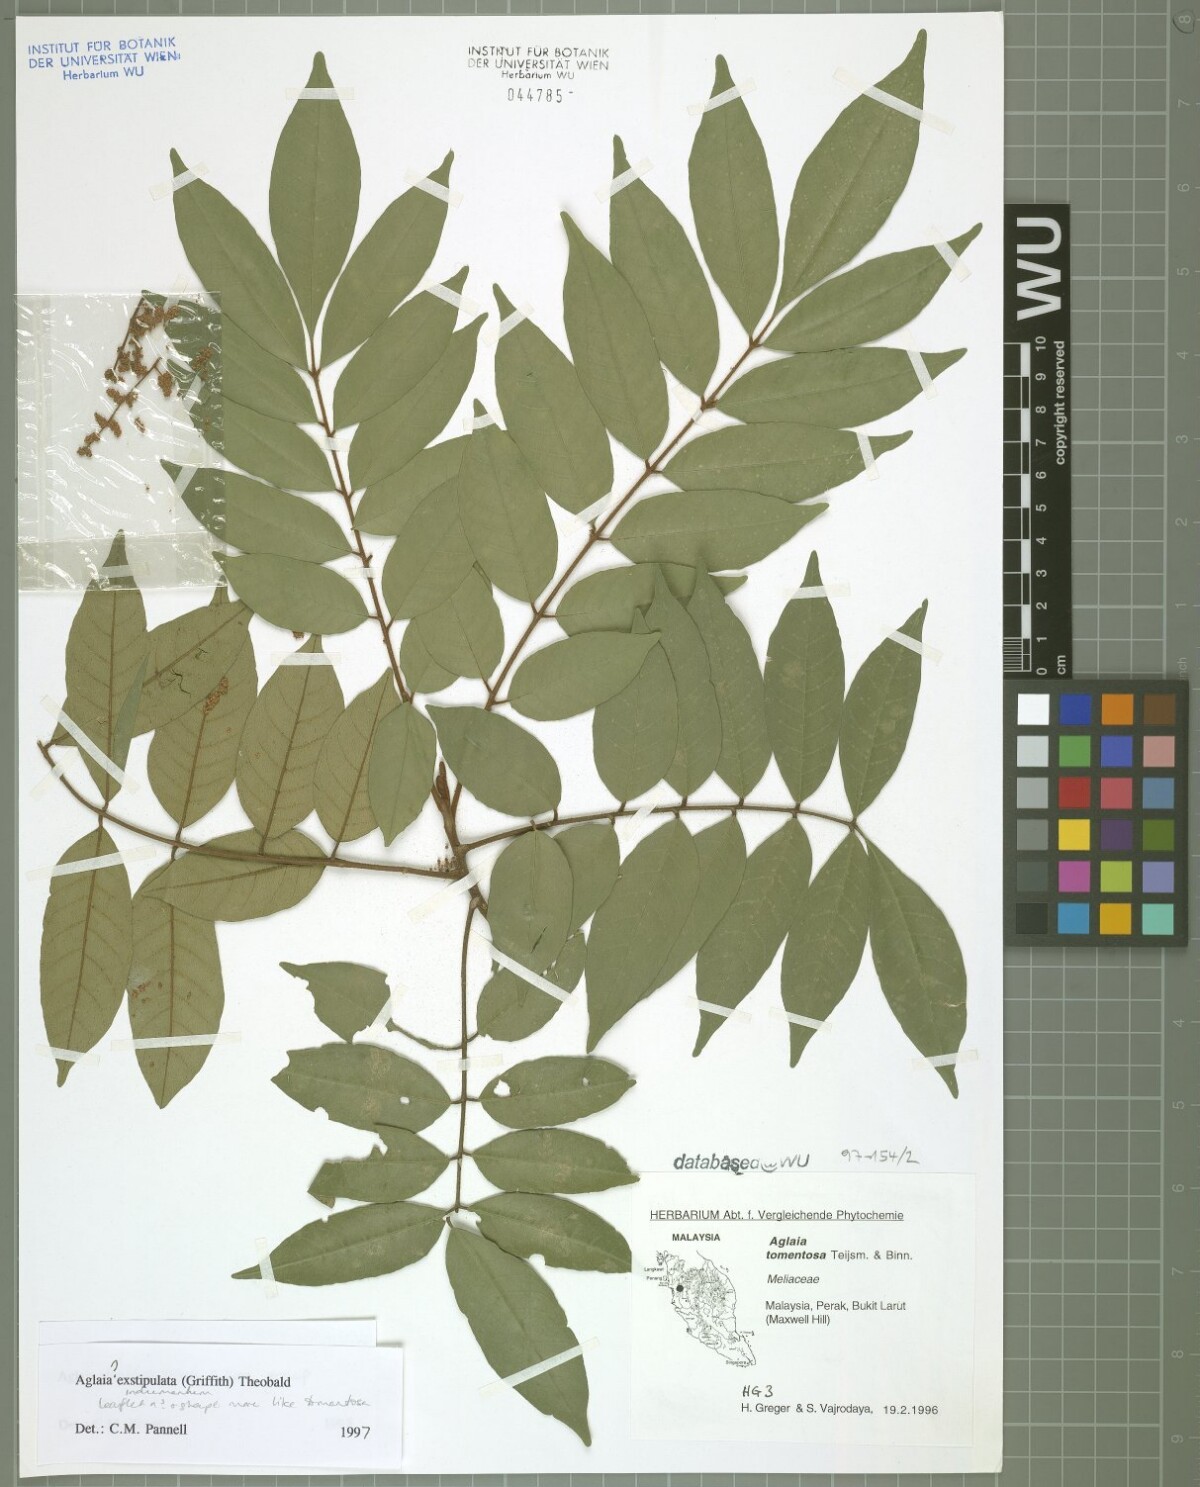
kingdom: Plantae
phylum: Tracheophyta
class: Magnoliopsida
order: Sapindales
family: Meliaceae
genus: Aglaia
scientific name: Aglaia exstipulata
